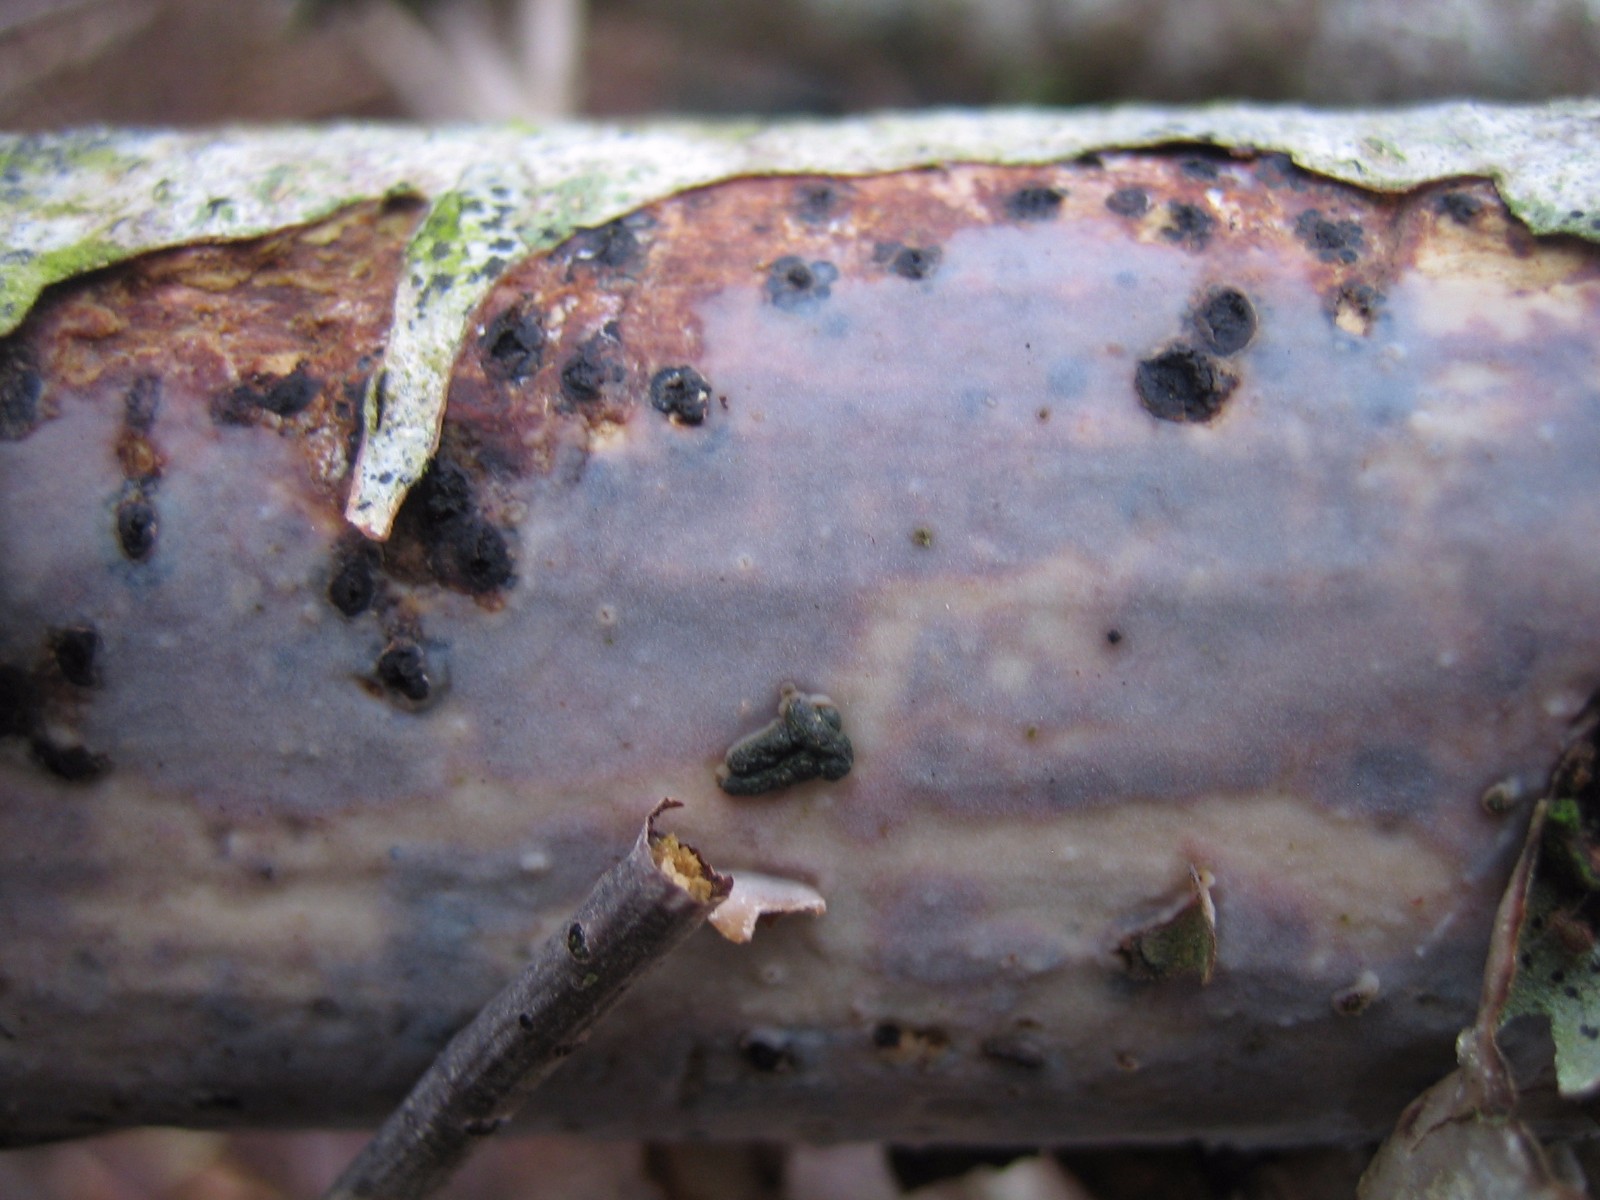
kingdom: Fungi
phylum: Basidiomycota
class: Agaricomycetes
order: Corticiales
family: Vuilleminiaceae
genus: Vuilleminia
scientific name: Vuilleminia comedens
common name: almindelig barksprænger
